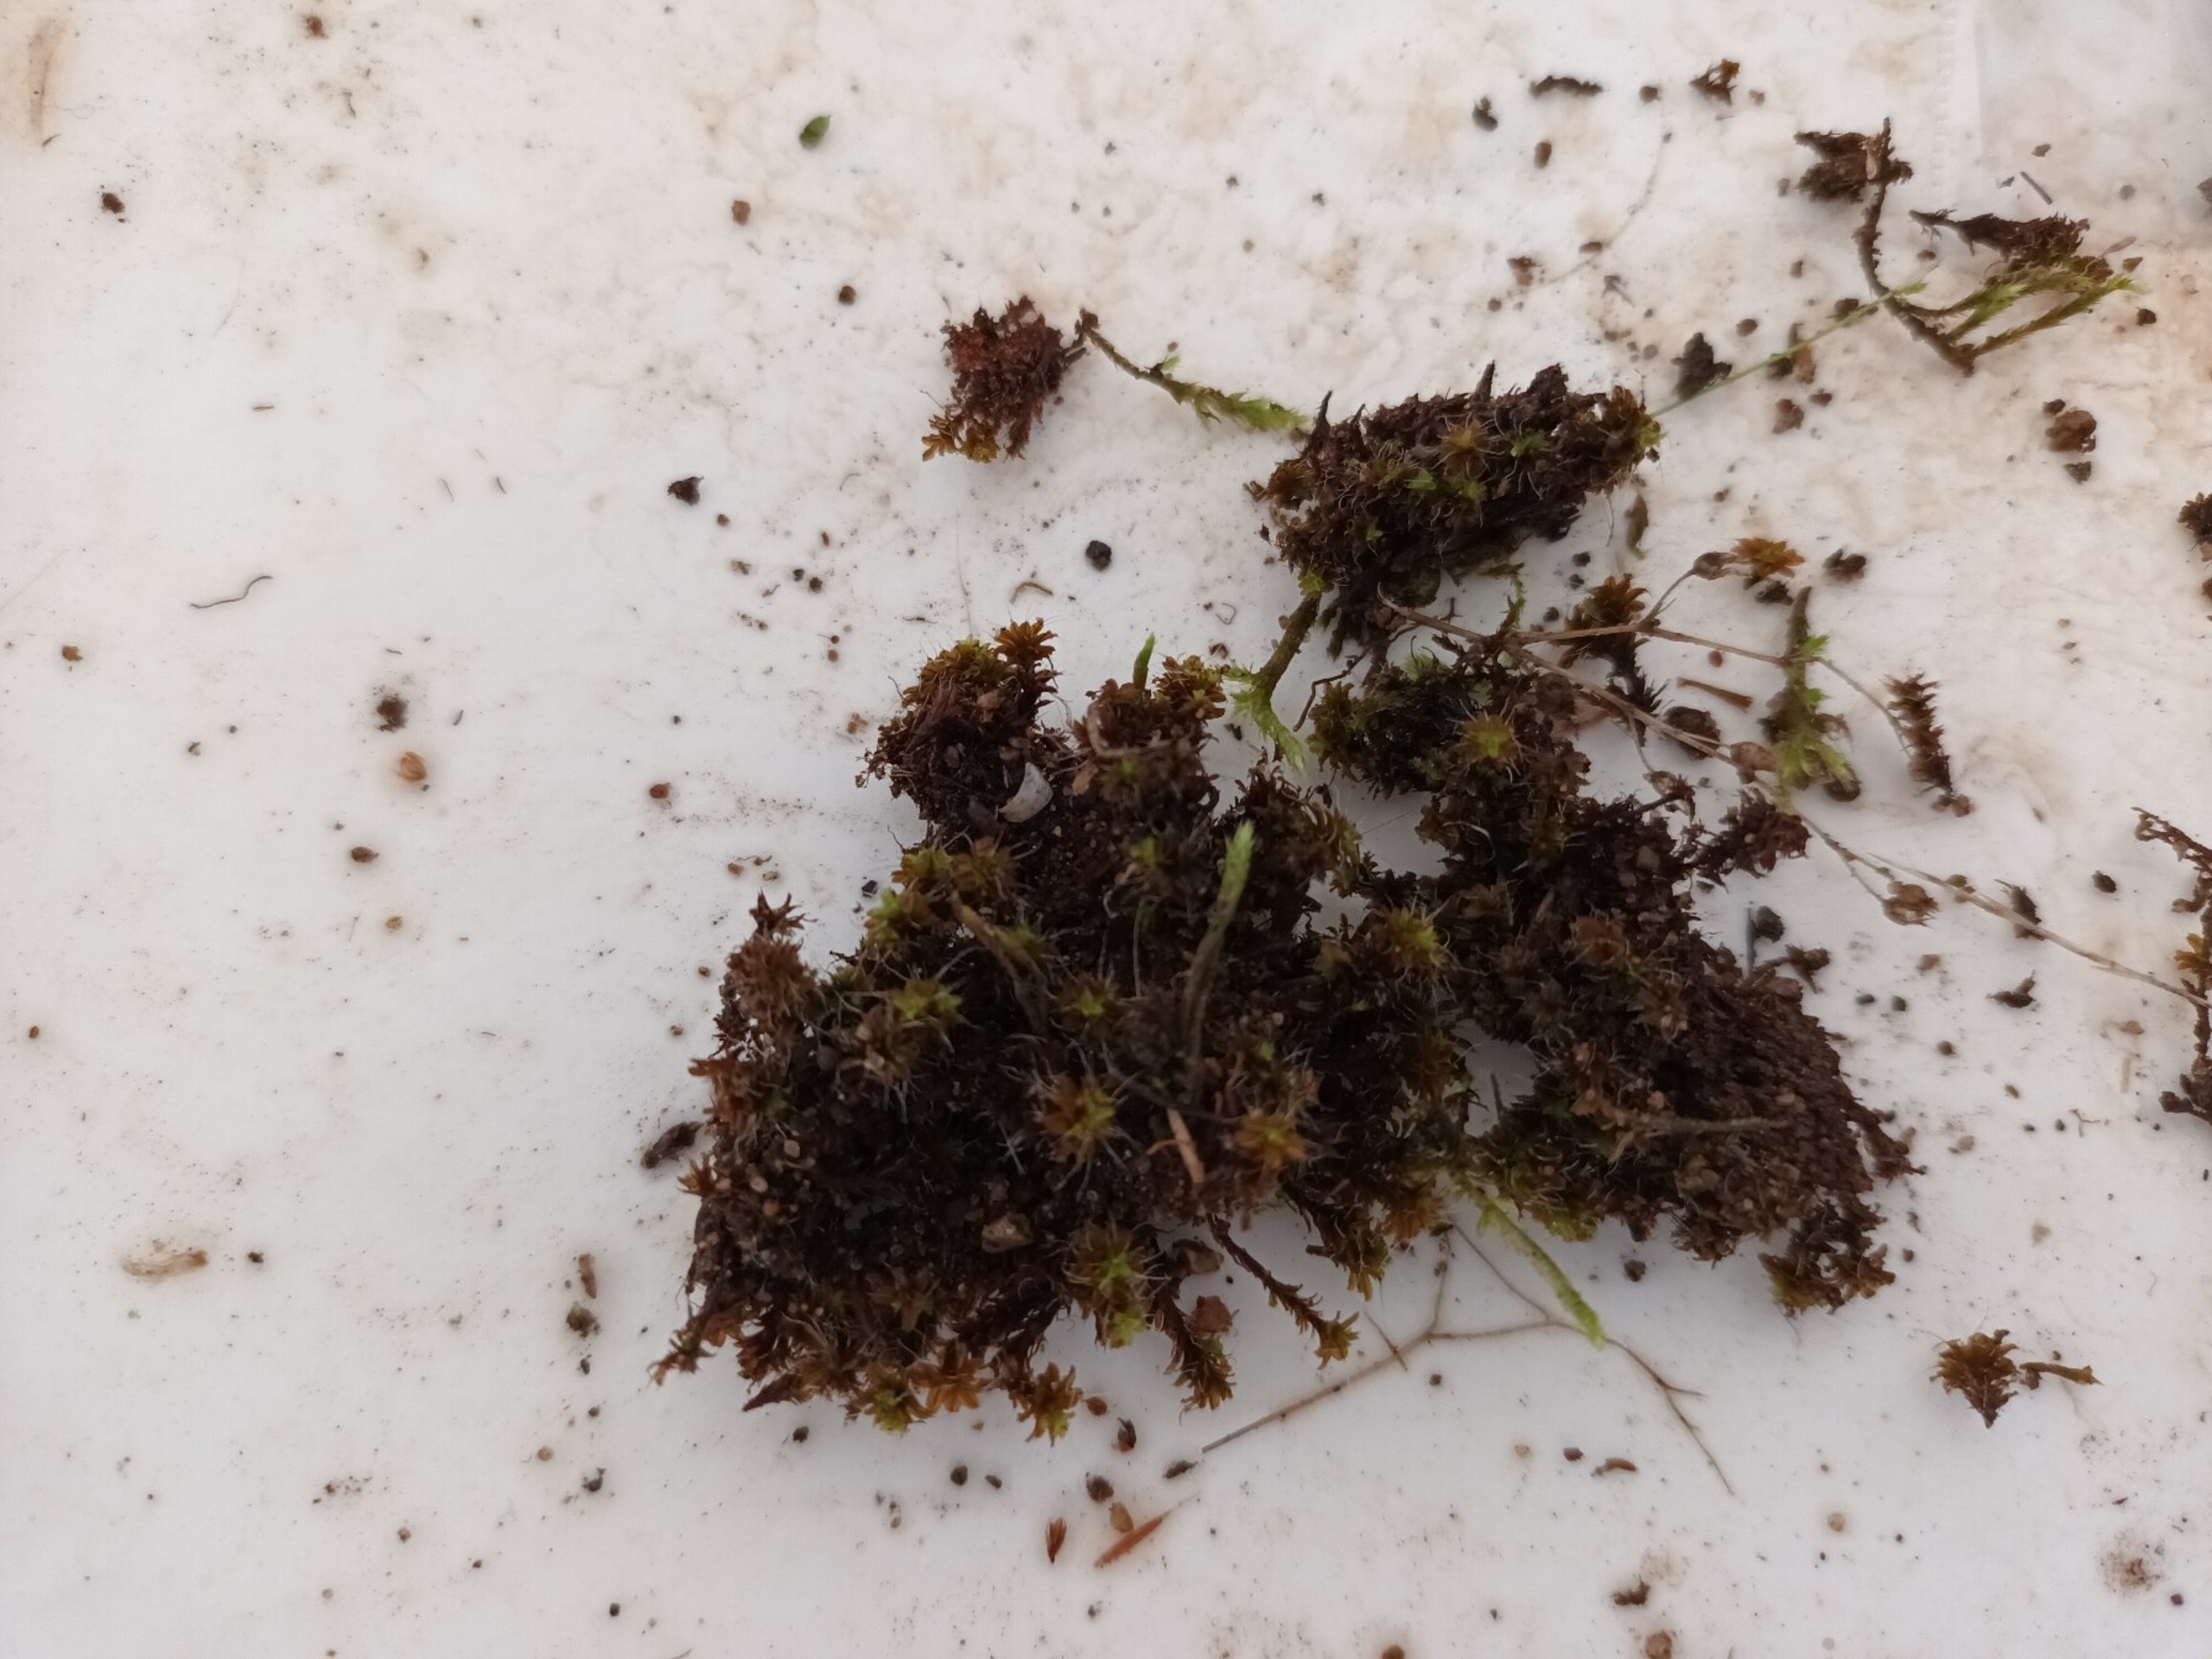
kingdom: Plantae
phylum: Bryophyta
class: Bryopsida
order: Pottiales
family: Pottiaceae
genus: Syntrichia
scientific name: Syntrichia ruralis
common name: Spidsbladet hårstjerne
